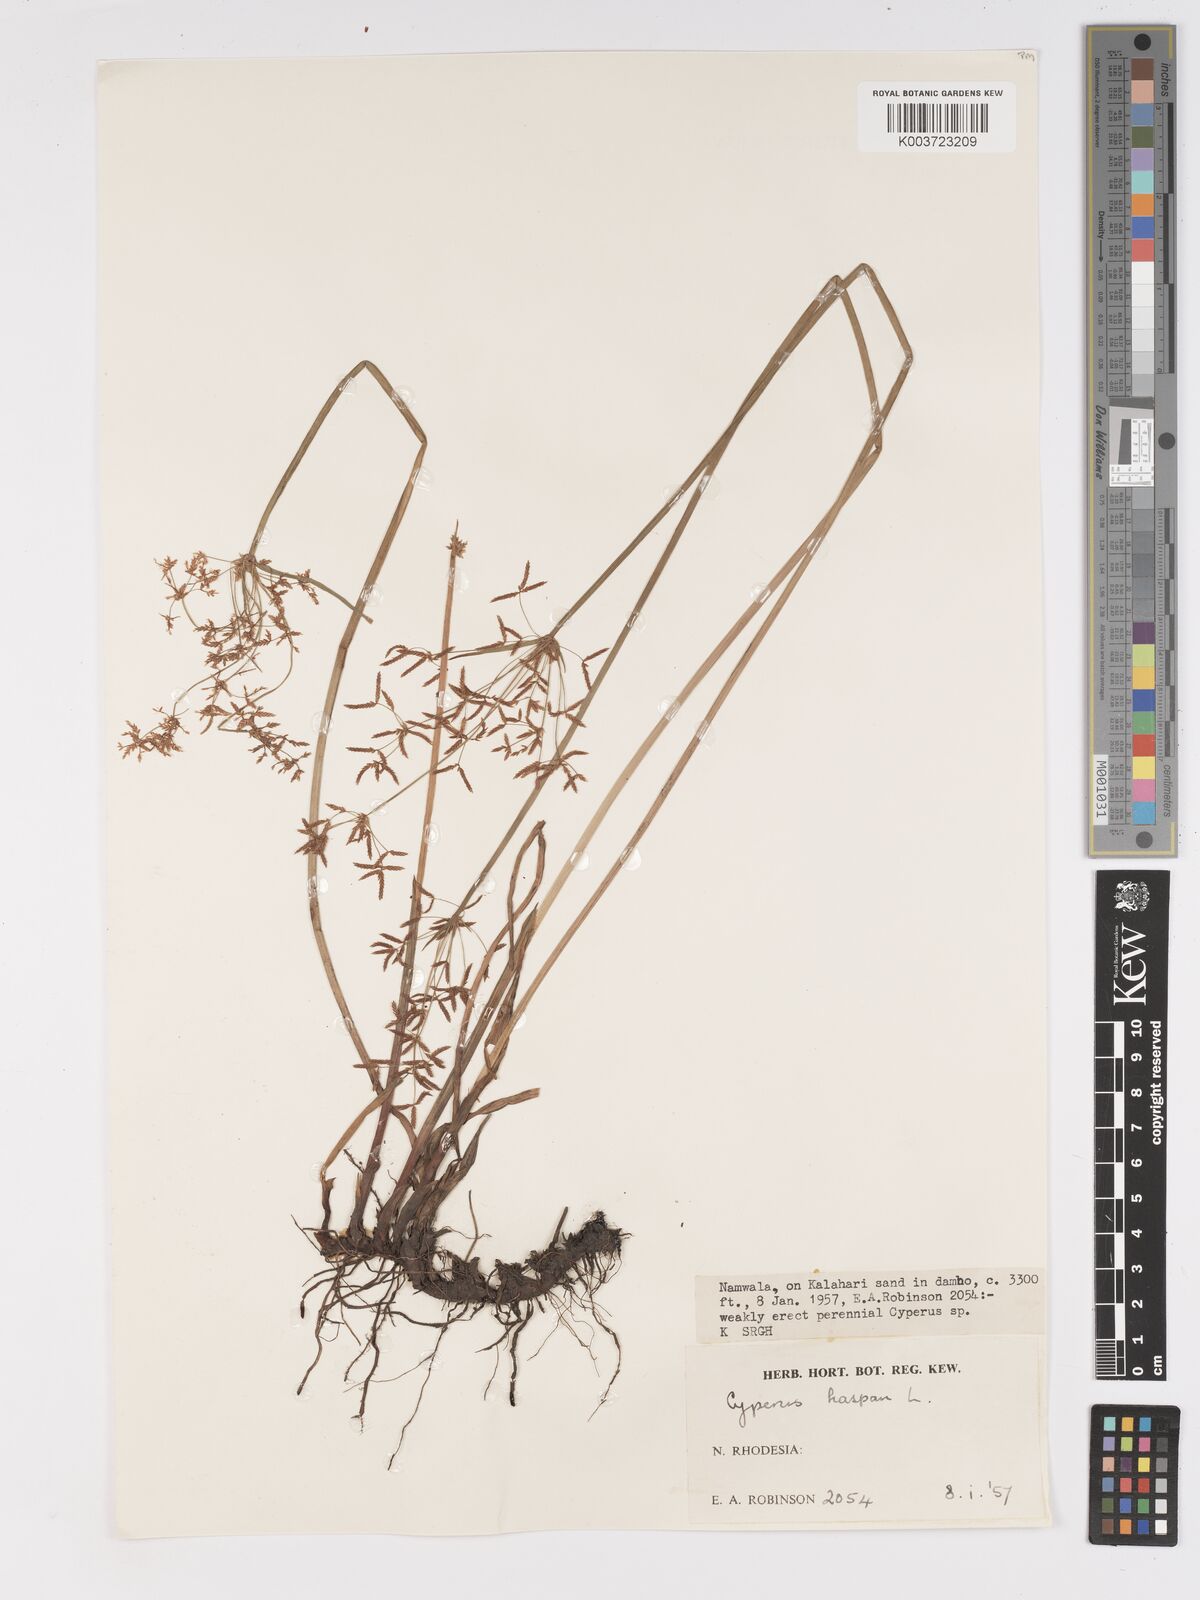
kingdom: Plantae
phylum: Tracheophyta
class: Liliopsida
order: Poales
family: Cyperaceae
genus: Cyperus
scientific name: Cyperus haspan
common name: Haspan flatsedge
